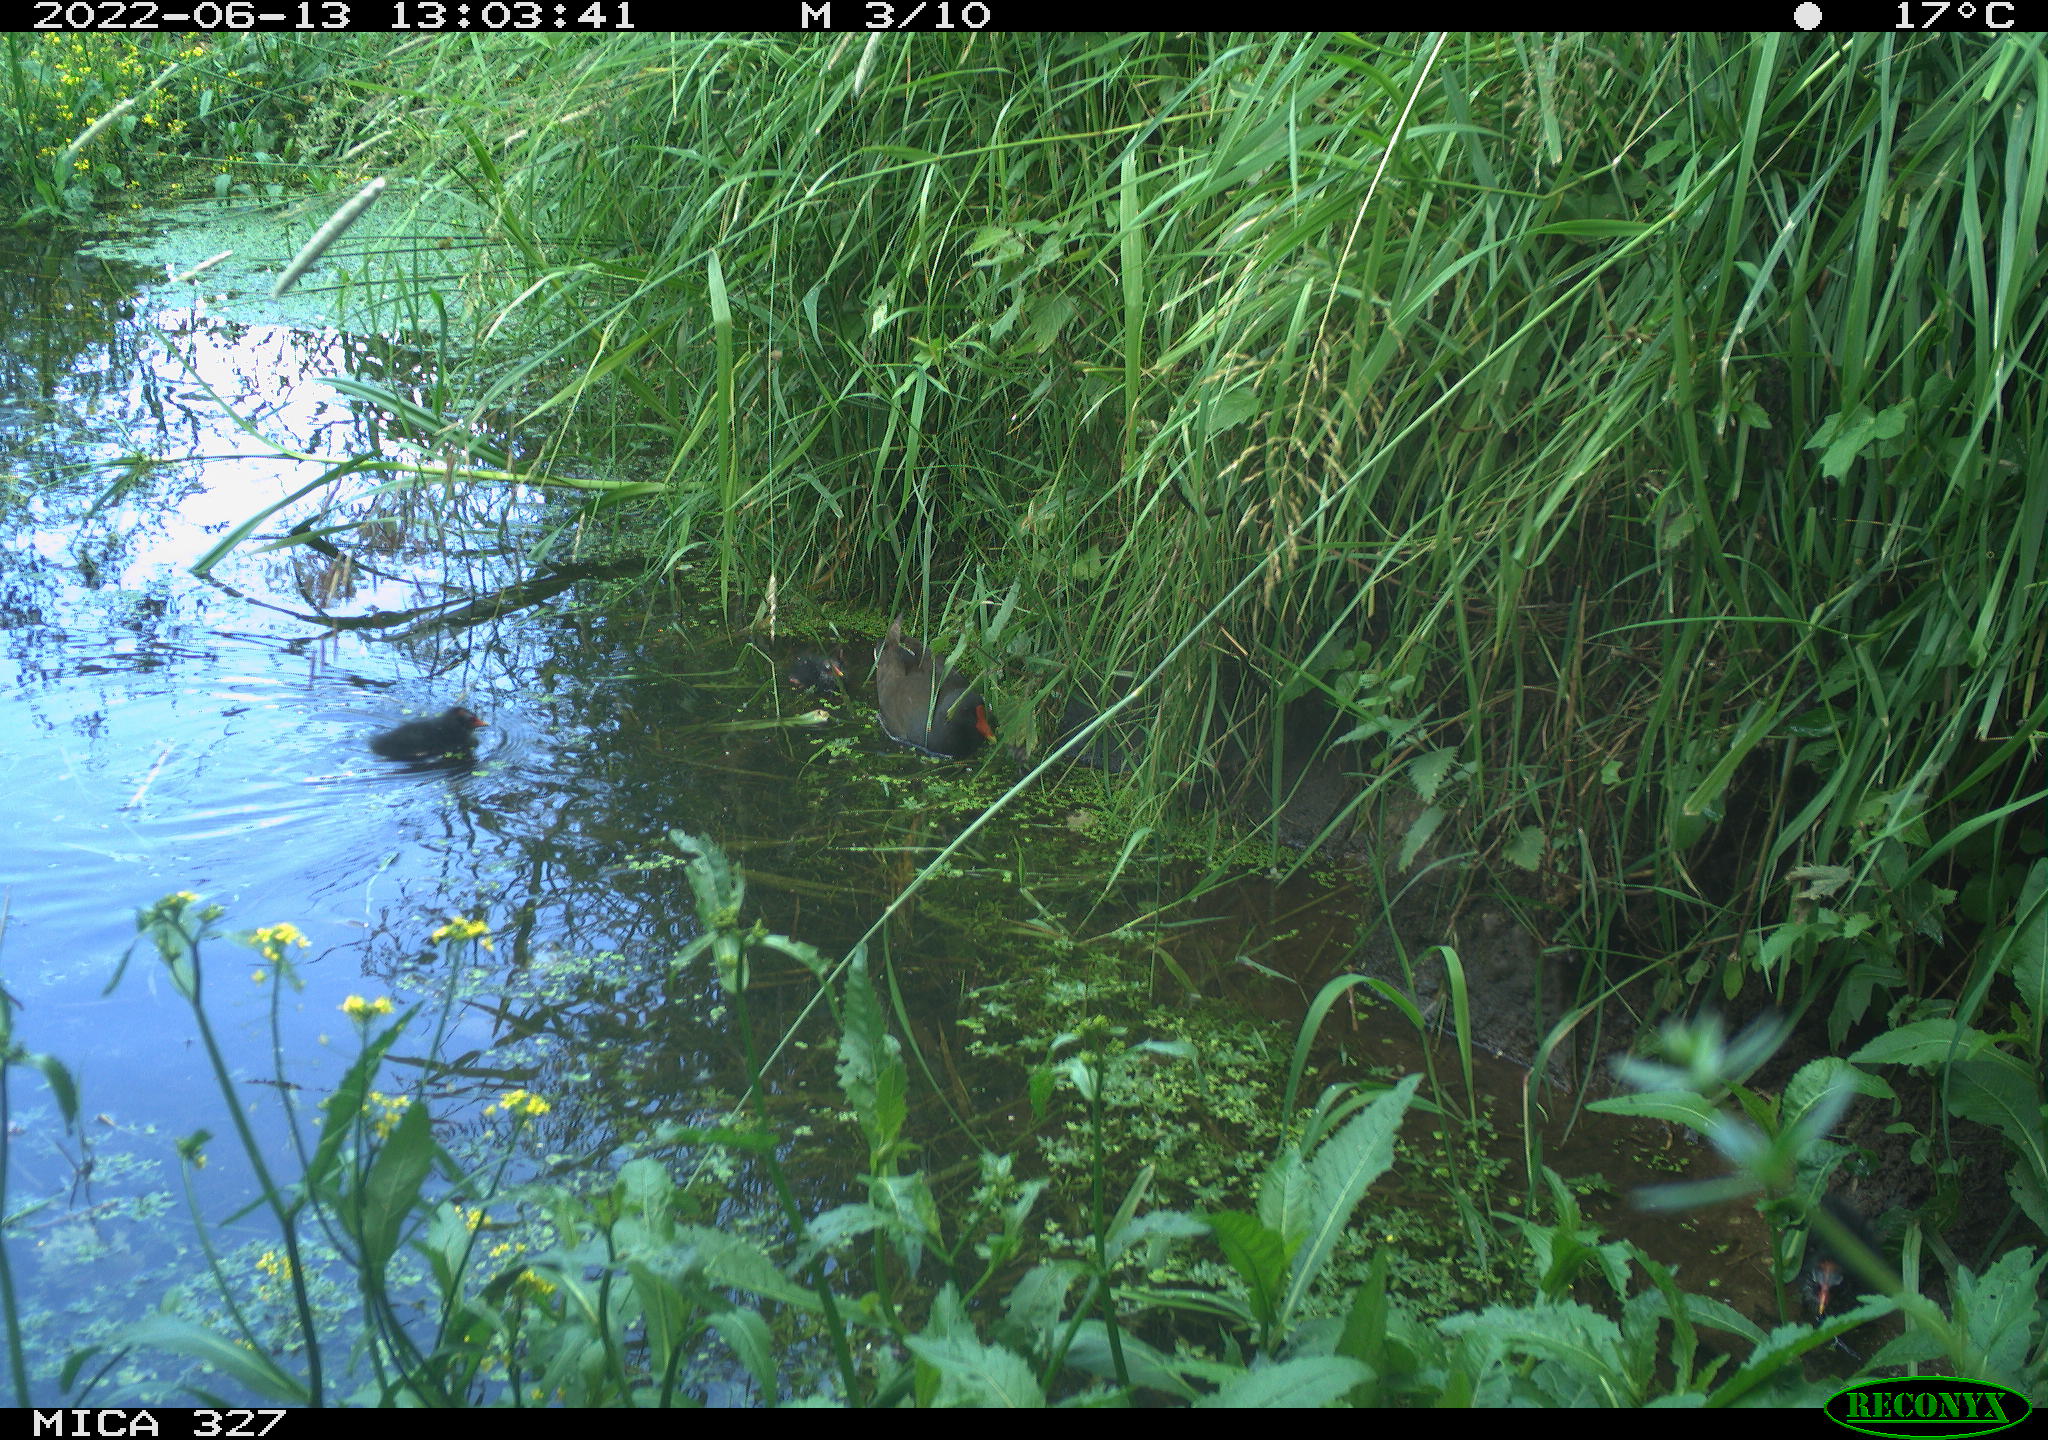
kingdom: Animalia
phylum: Chordata
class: Aves
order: Gruiformes
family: Rallidae
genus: Gallinula
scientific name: Gallinula chloropus
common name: Common moorhen
